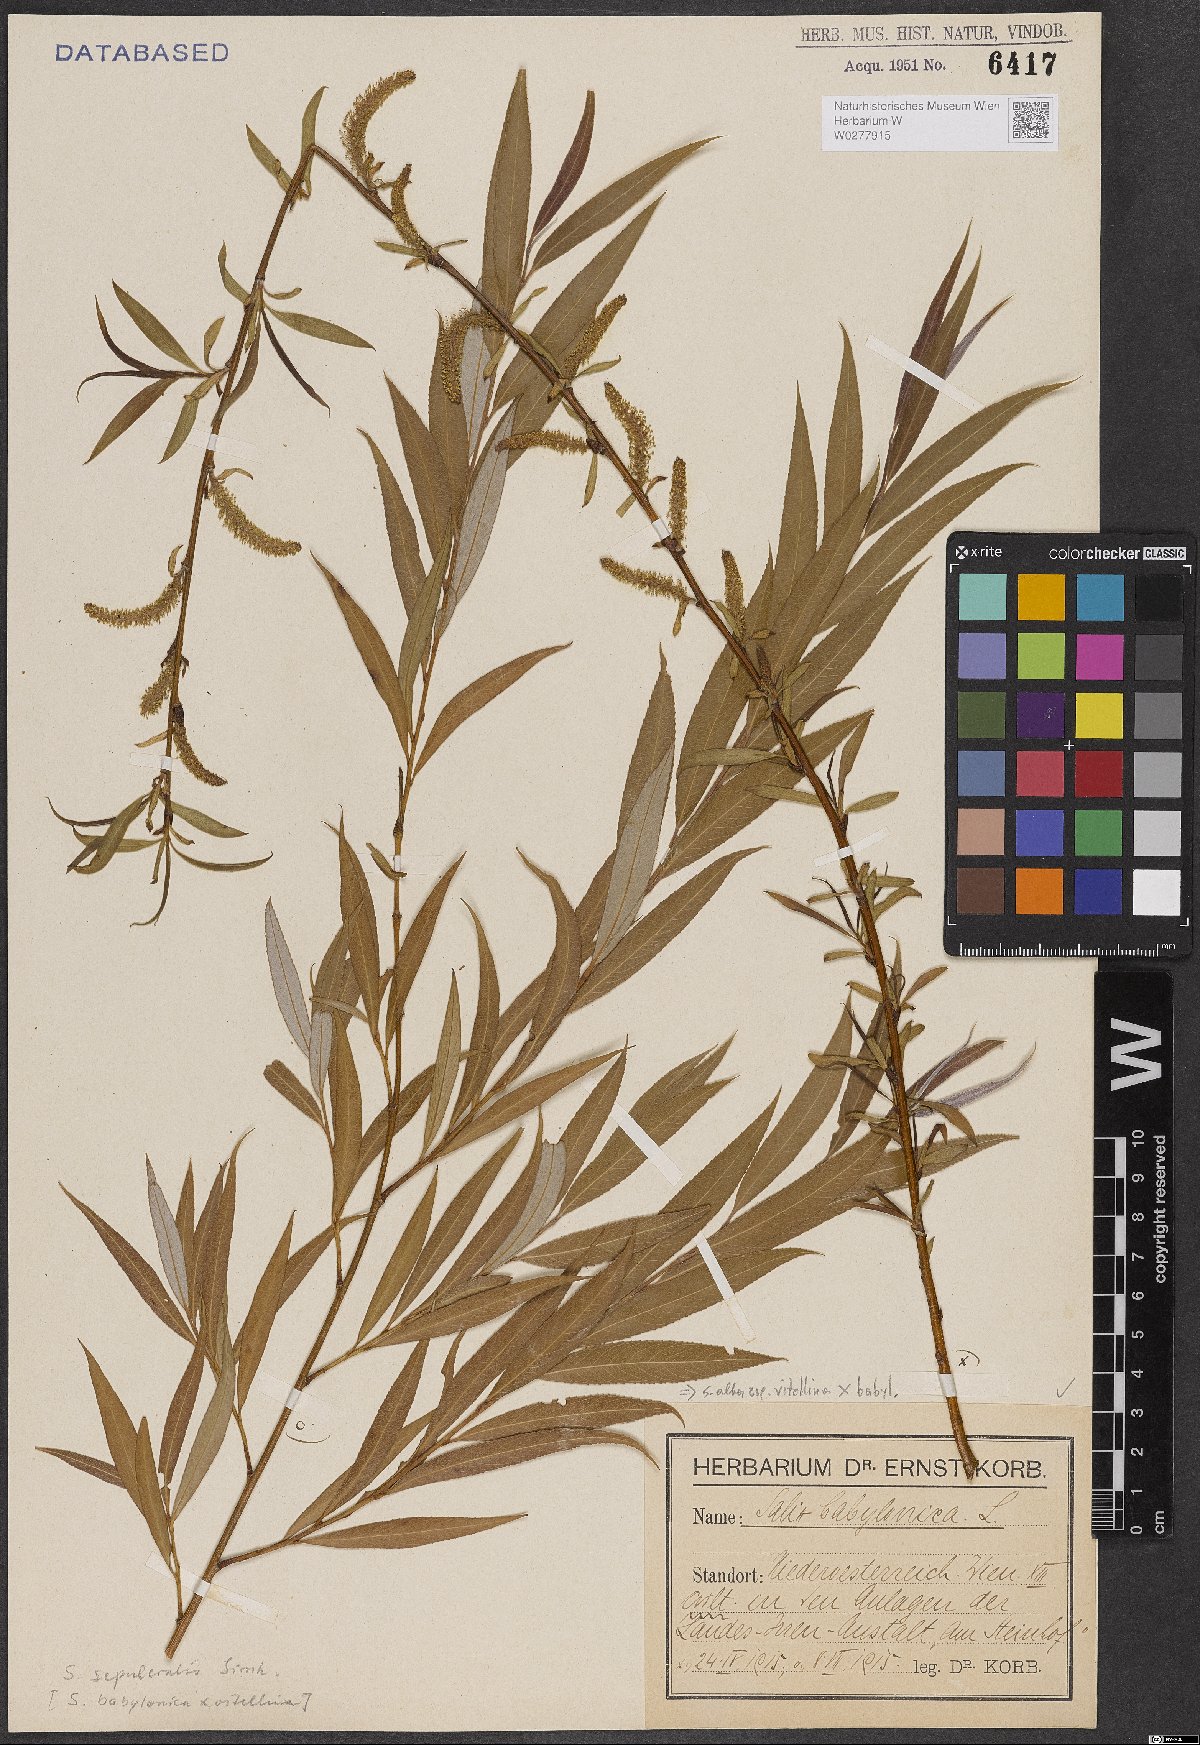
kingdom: Plantae
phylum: Tracheophyta
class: Magnoliopsida
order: Malpighiales
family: Salicaceae
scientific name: Salicaceae
